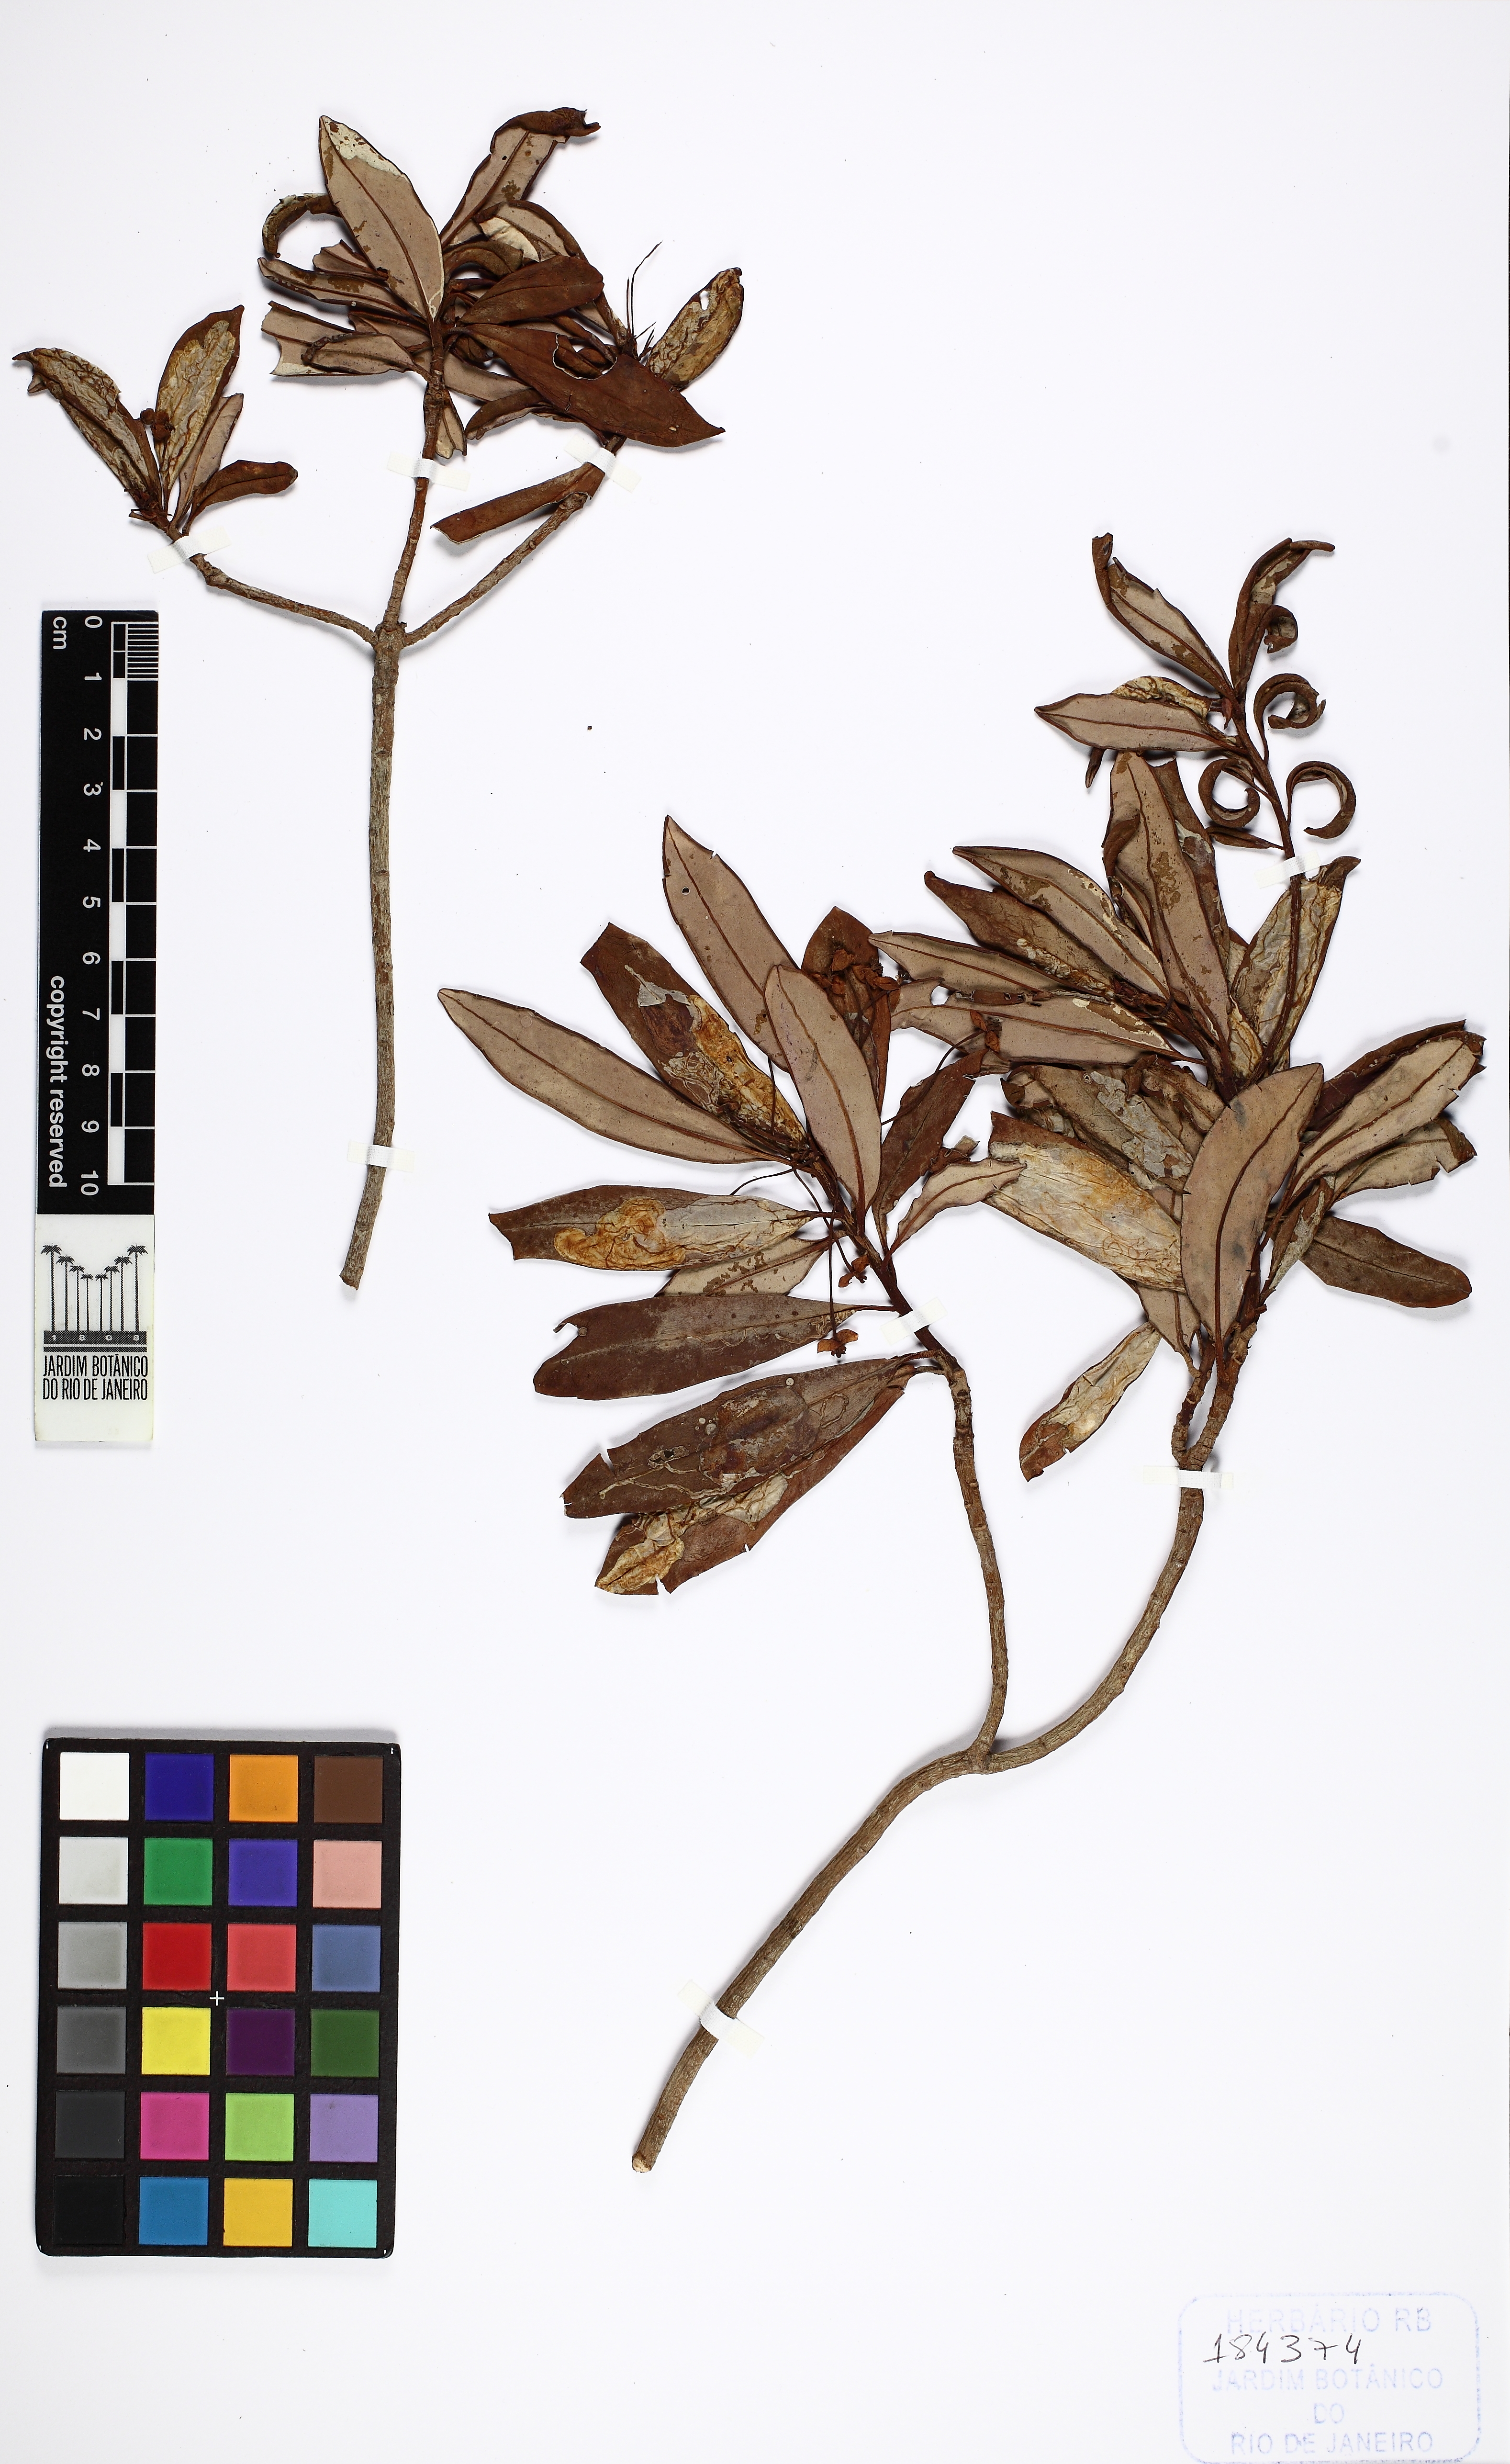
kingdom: Plantae
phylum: Tracheophyta
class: Magnoliopsida
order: Canellales
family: Winteraceae
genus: Drimys
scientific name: Drimys
